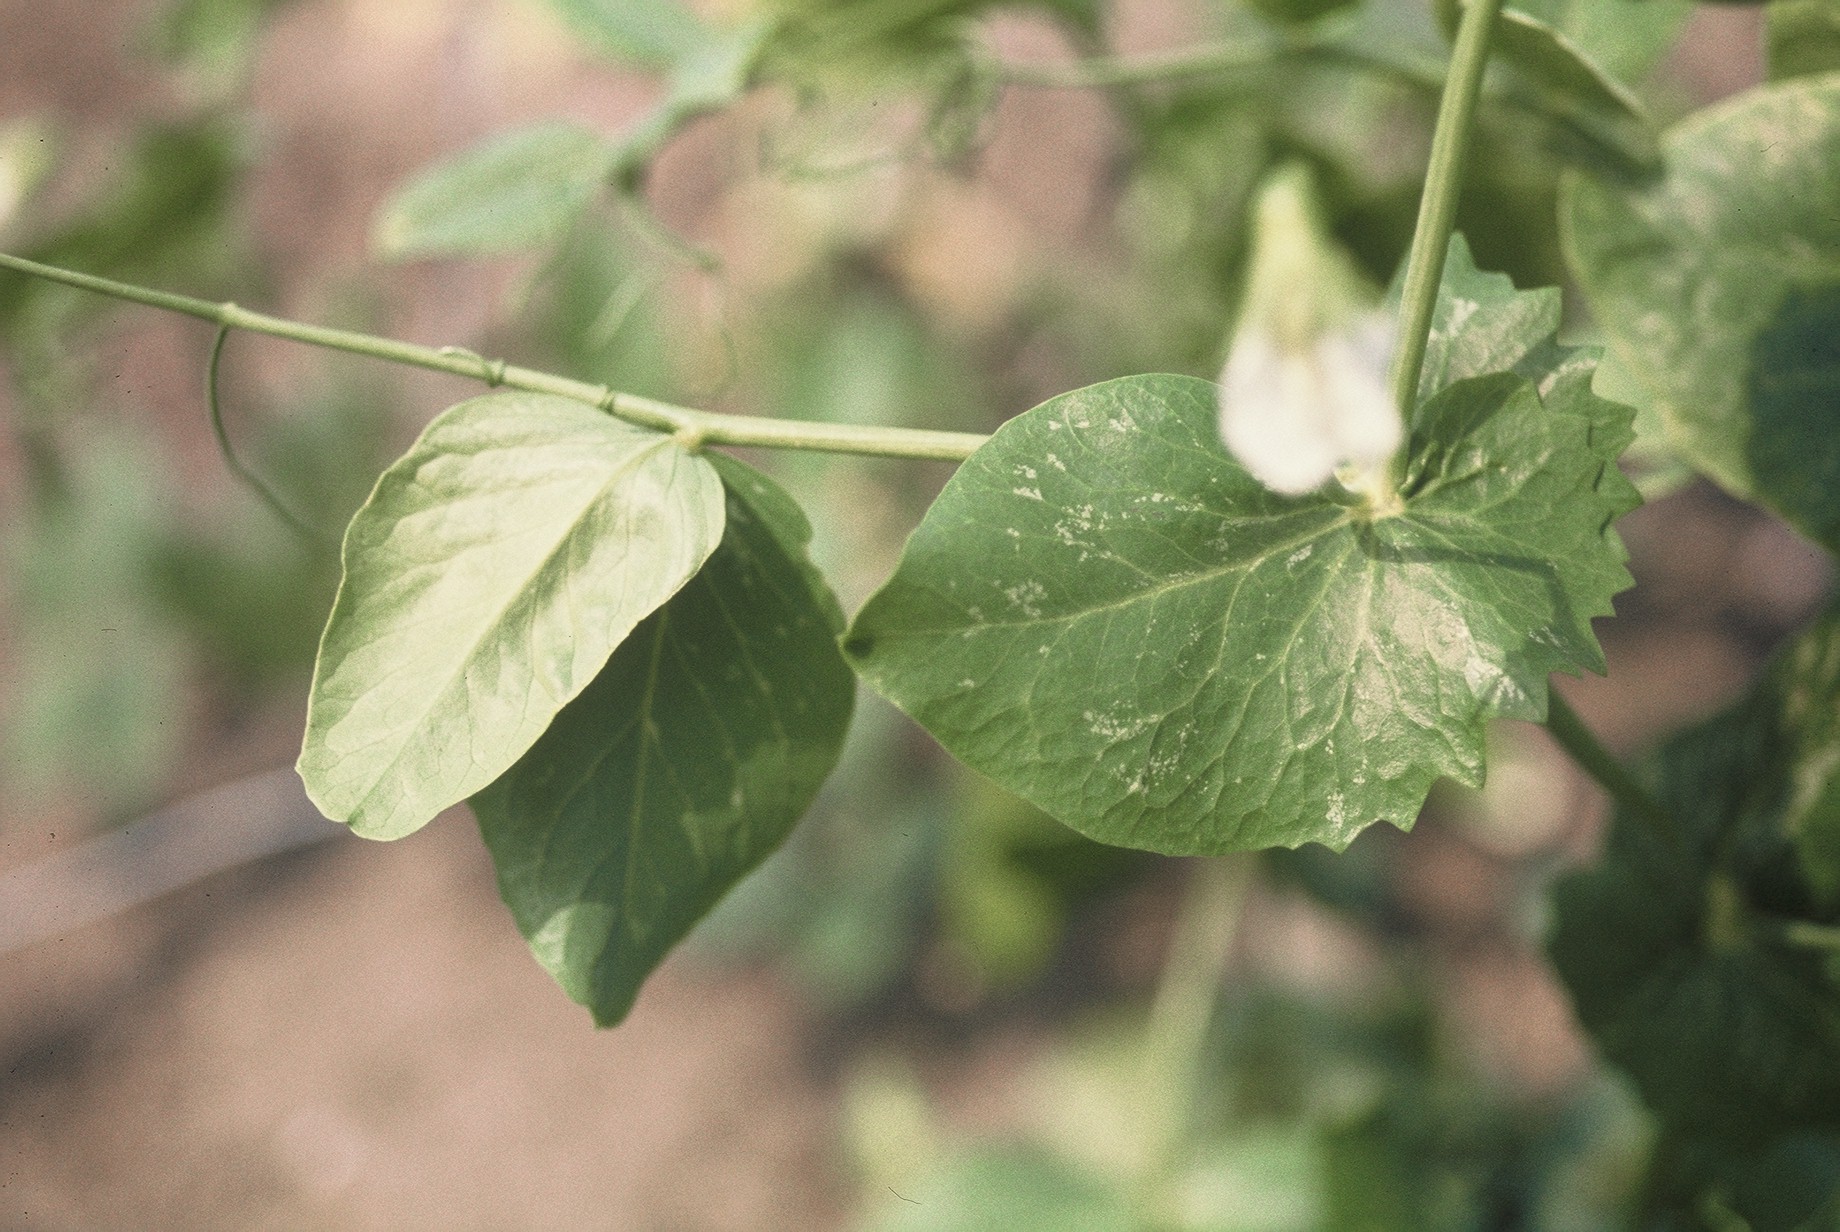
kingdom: Plantae
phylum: Tracheophyta
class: Magnoliopsida
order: Fabales
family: Fabaceae
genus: Lathyrus
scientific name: Lathyrus oleraceus
